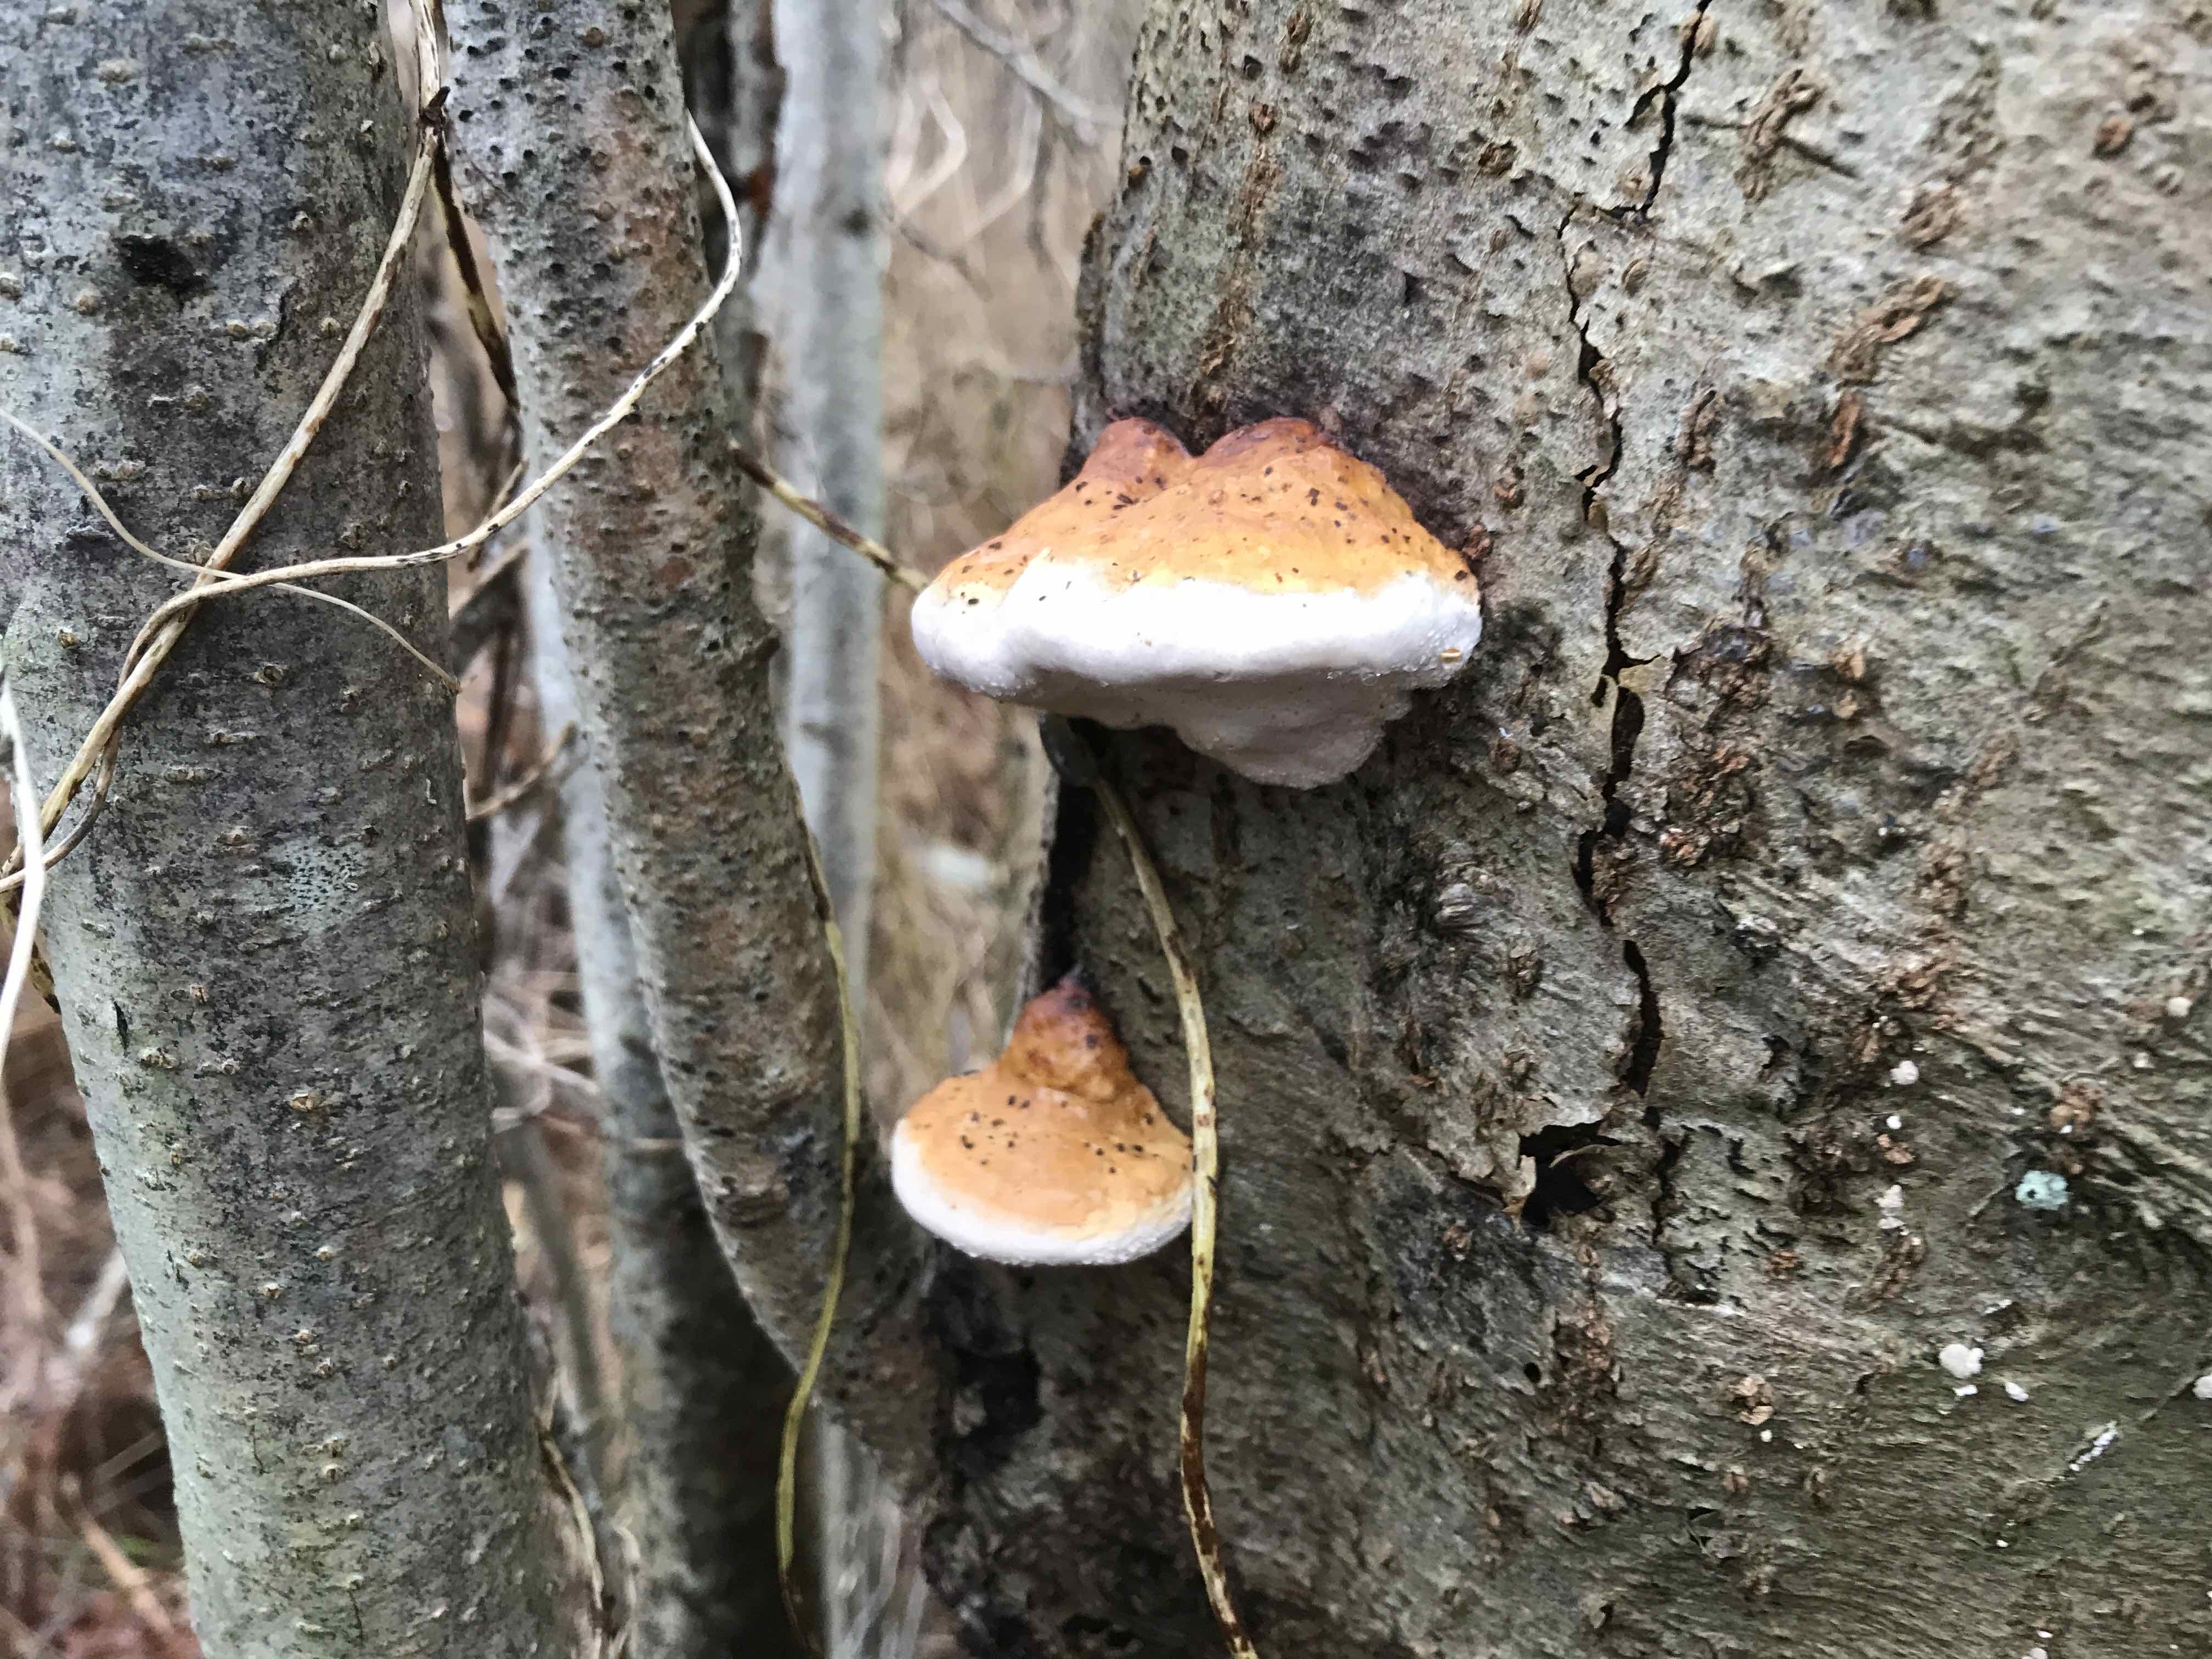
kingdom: Fungi
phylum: Basidiomycota
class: Agaricomycetes
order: Polyporales
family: Fomitopsidaceae
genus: Fomitopsis
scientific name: Fomitopsis pinicola
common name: randbæltet hovporesvamp
